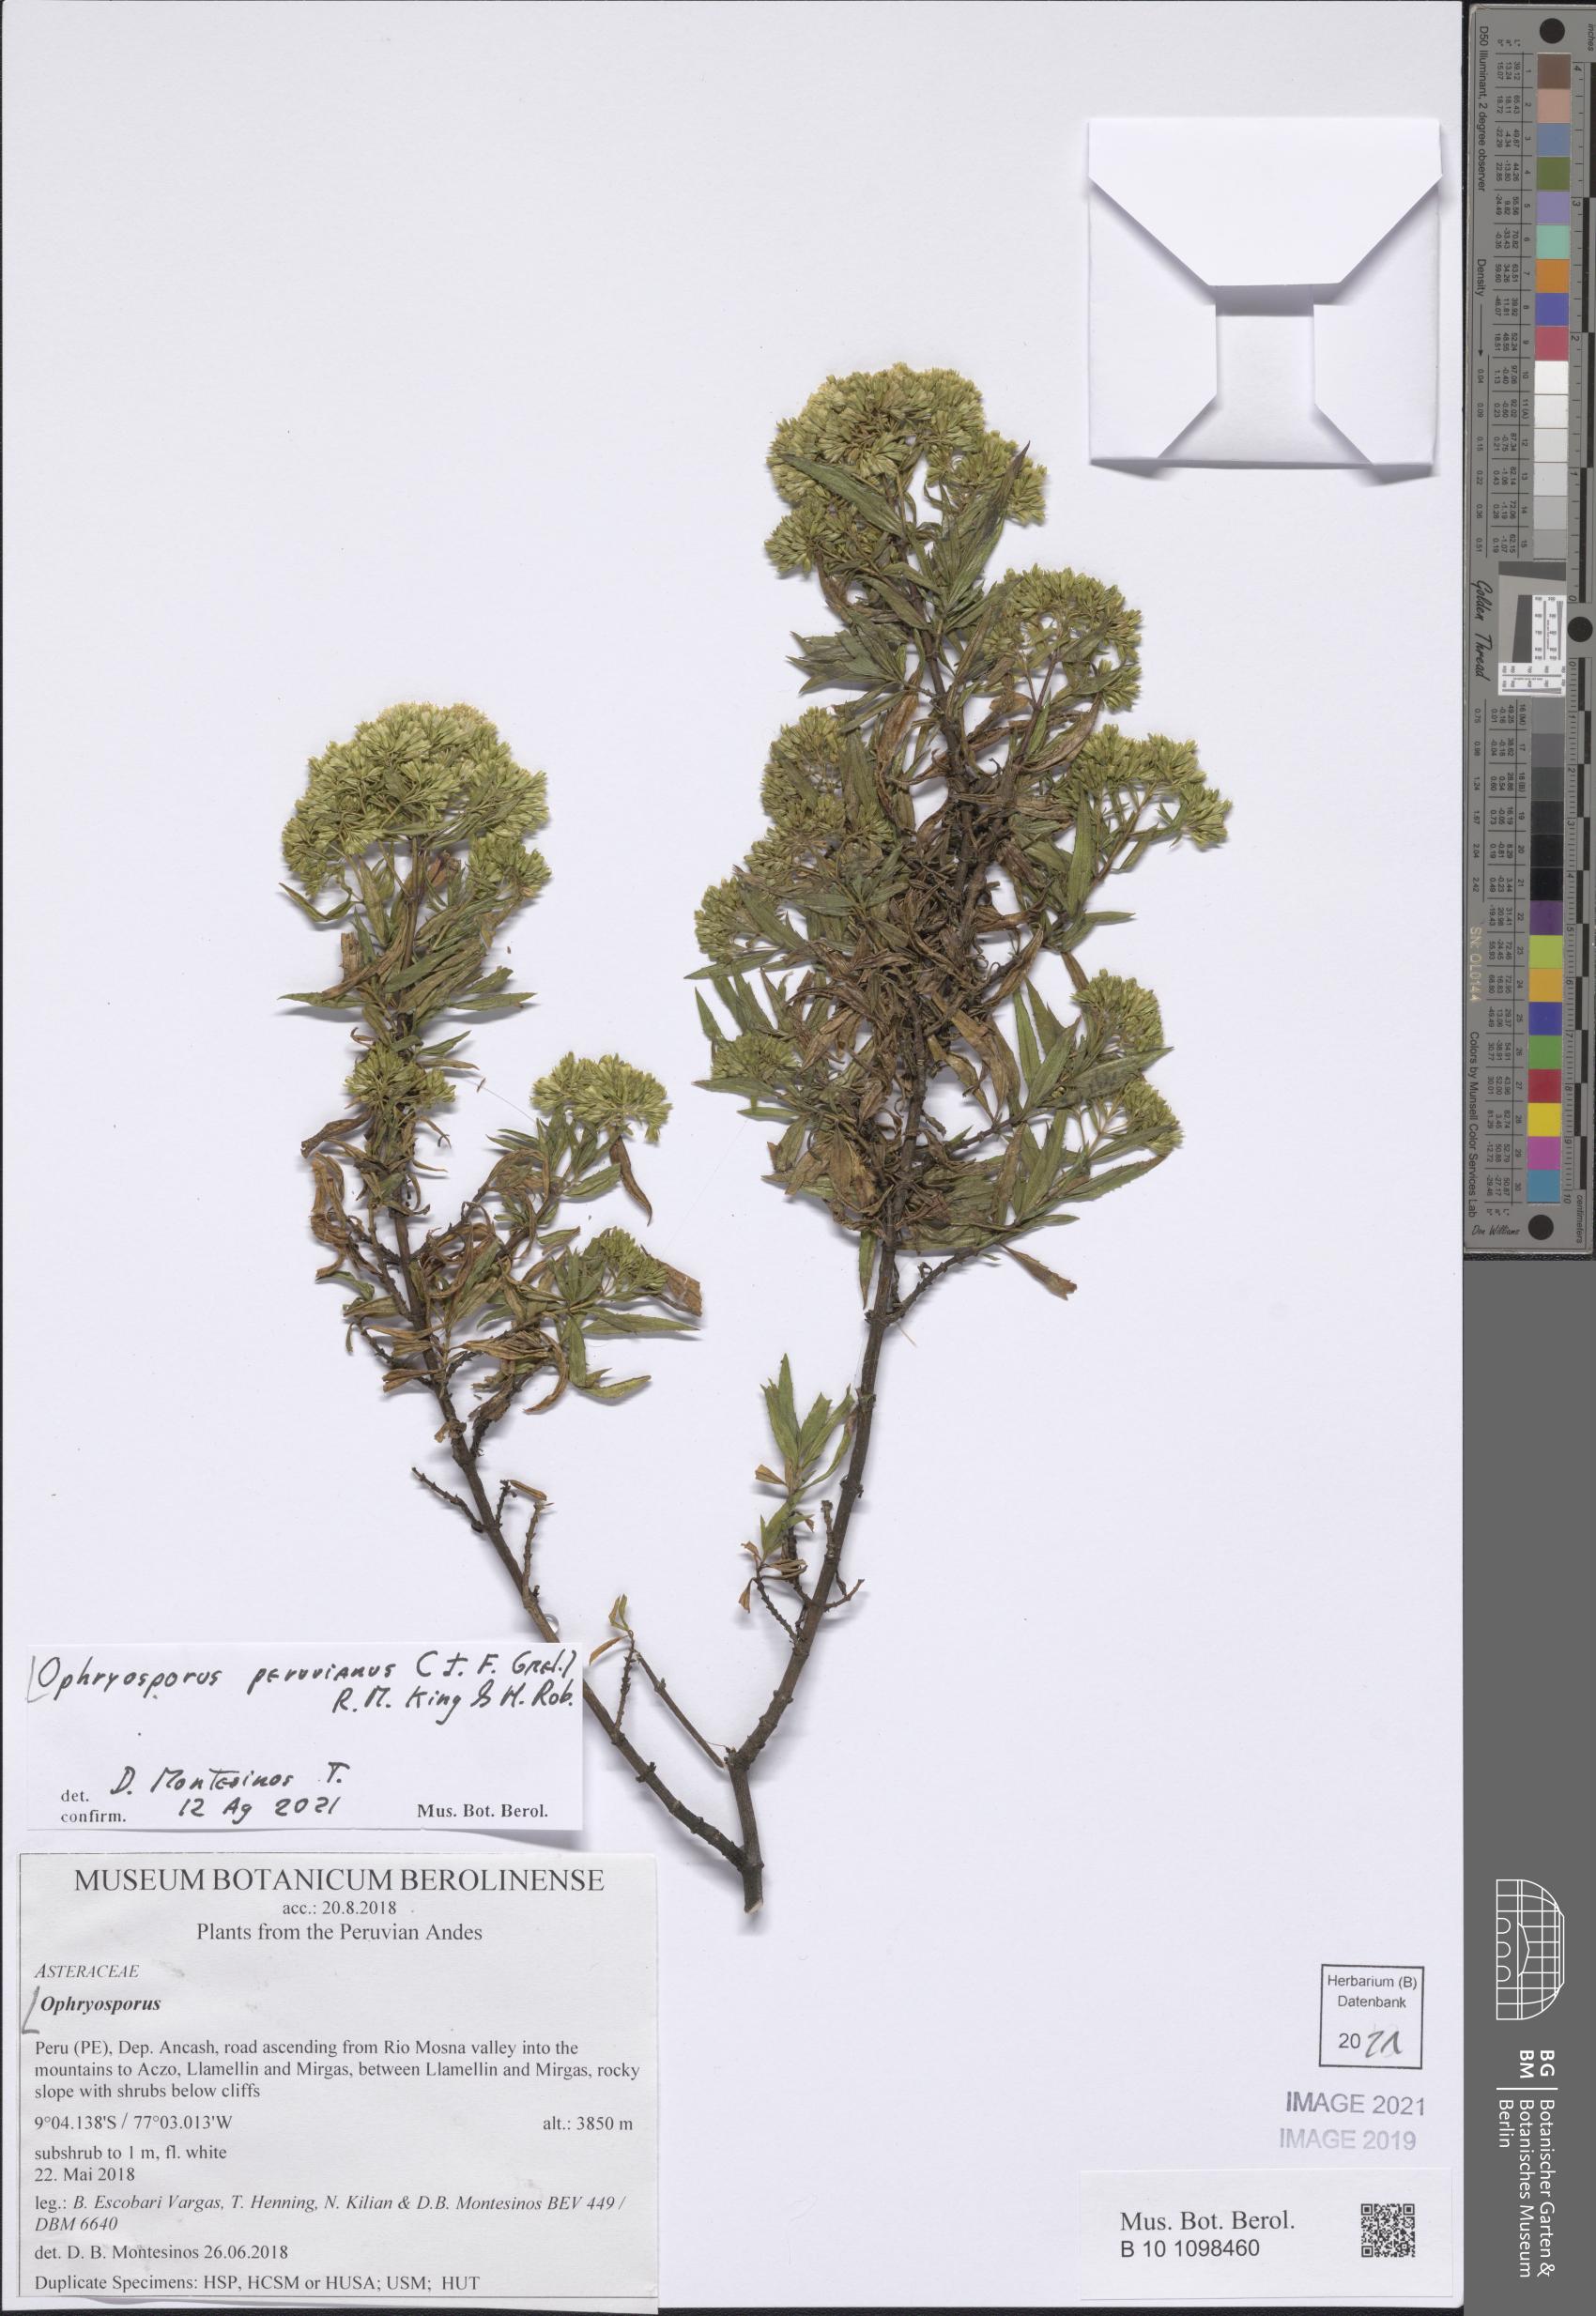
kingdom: Plantae
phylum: Tracheophyta
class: Magnoliopsida
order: Asterales
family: Asteraceae
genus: Ophryosporus
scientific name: Ophryosporus peruvianus
